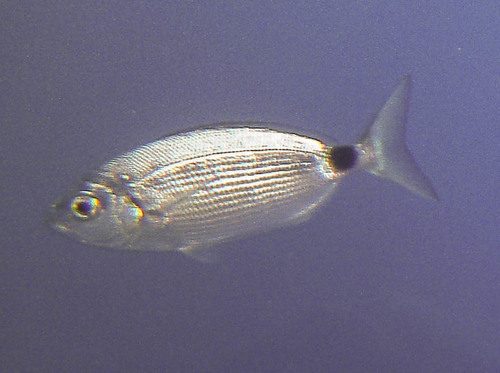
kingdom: Animalia
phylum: Chordata
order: Perciformes
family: Sparidae
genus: Oblada
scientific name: Oblada melanura
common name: Saddled seabream
